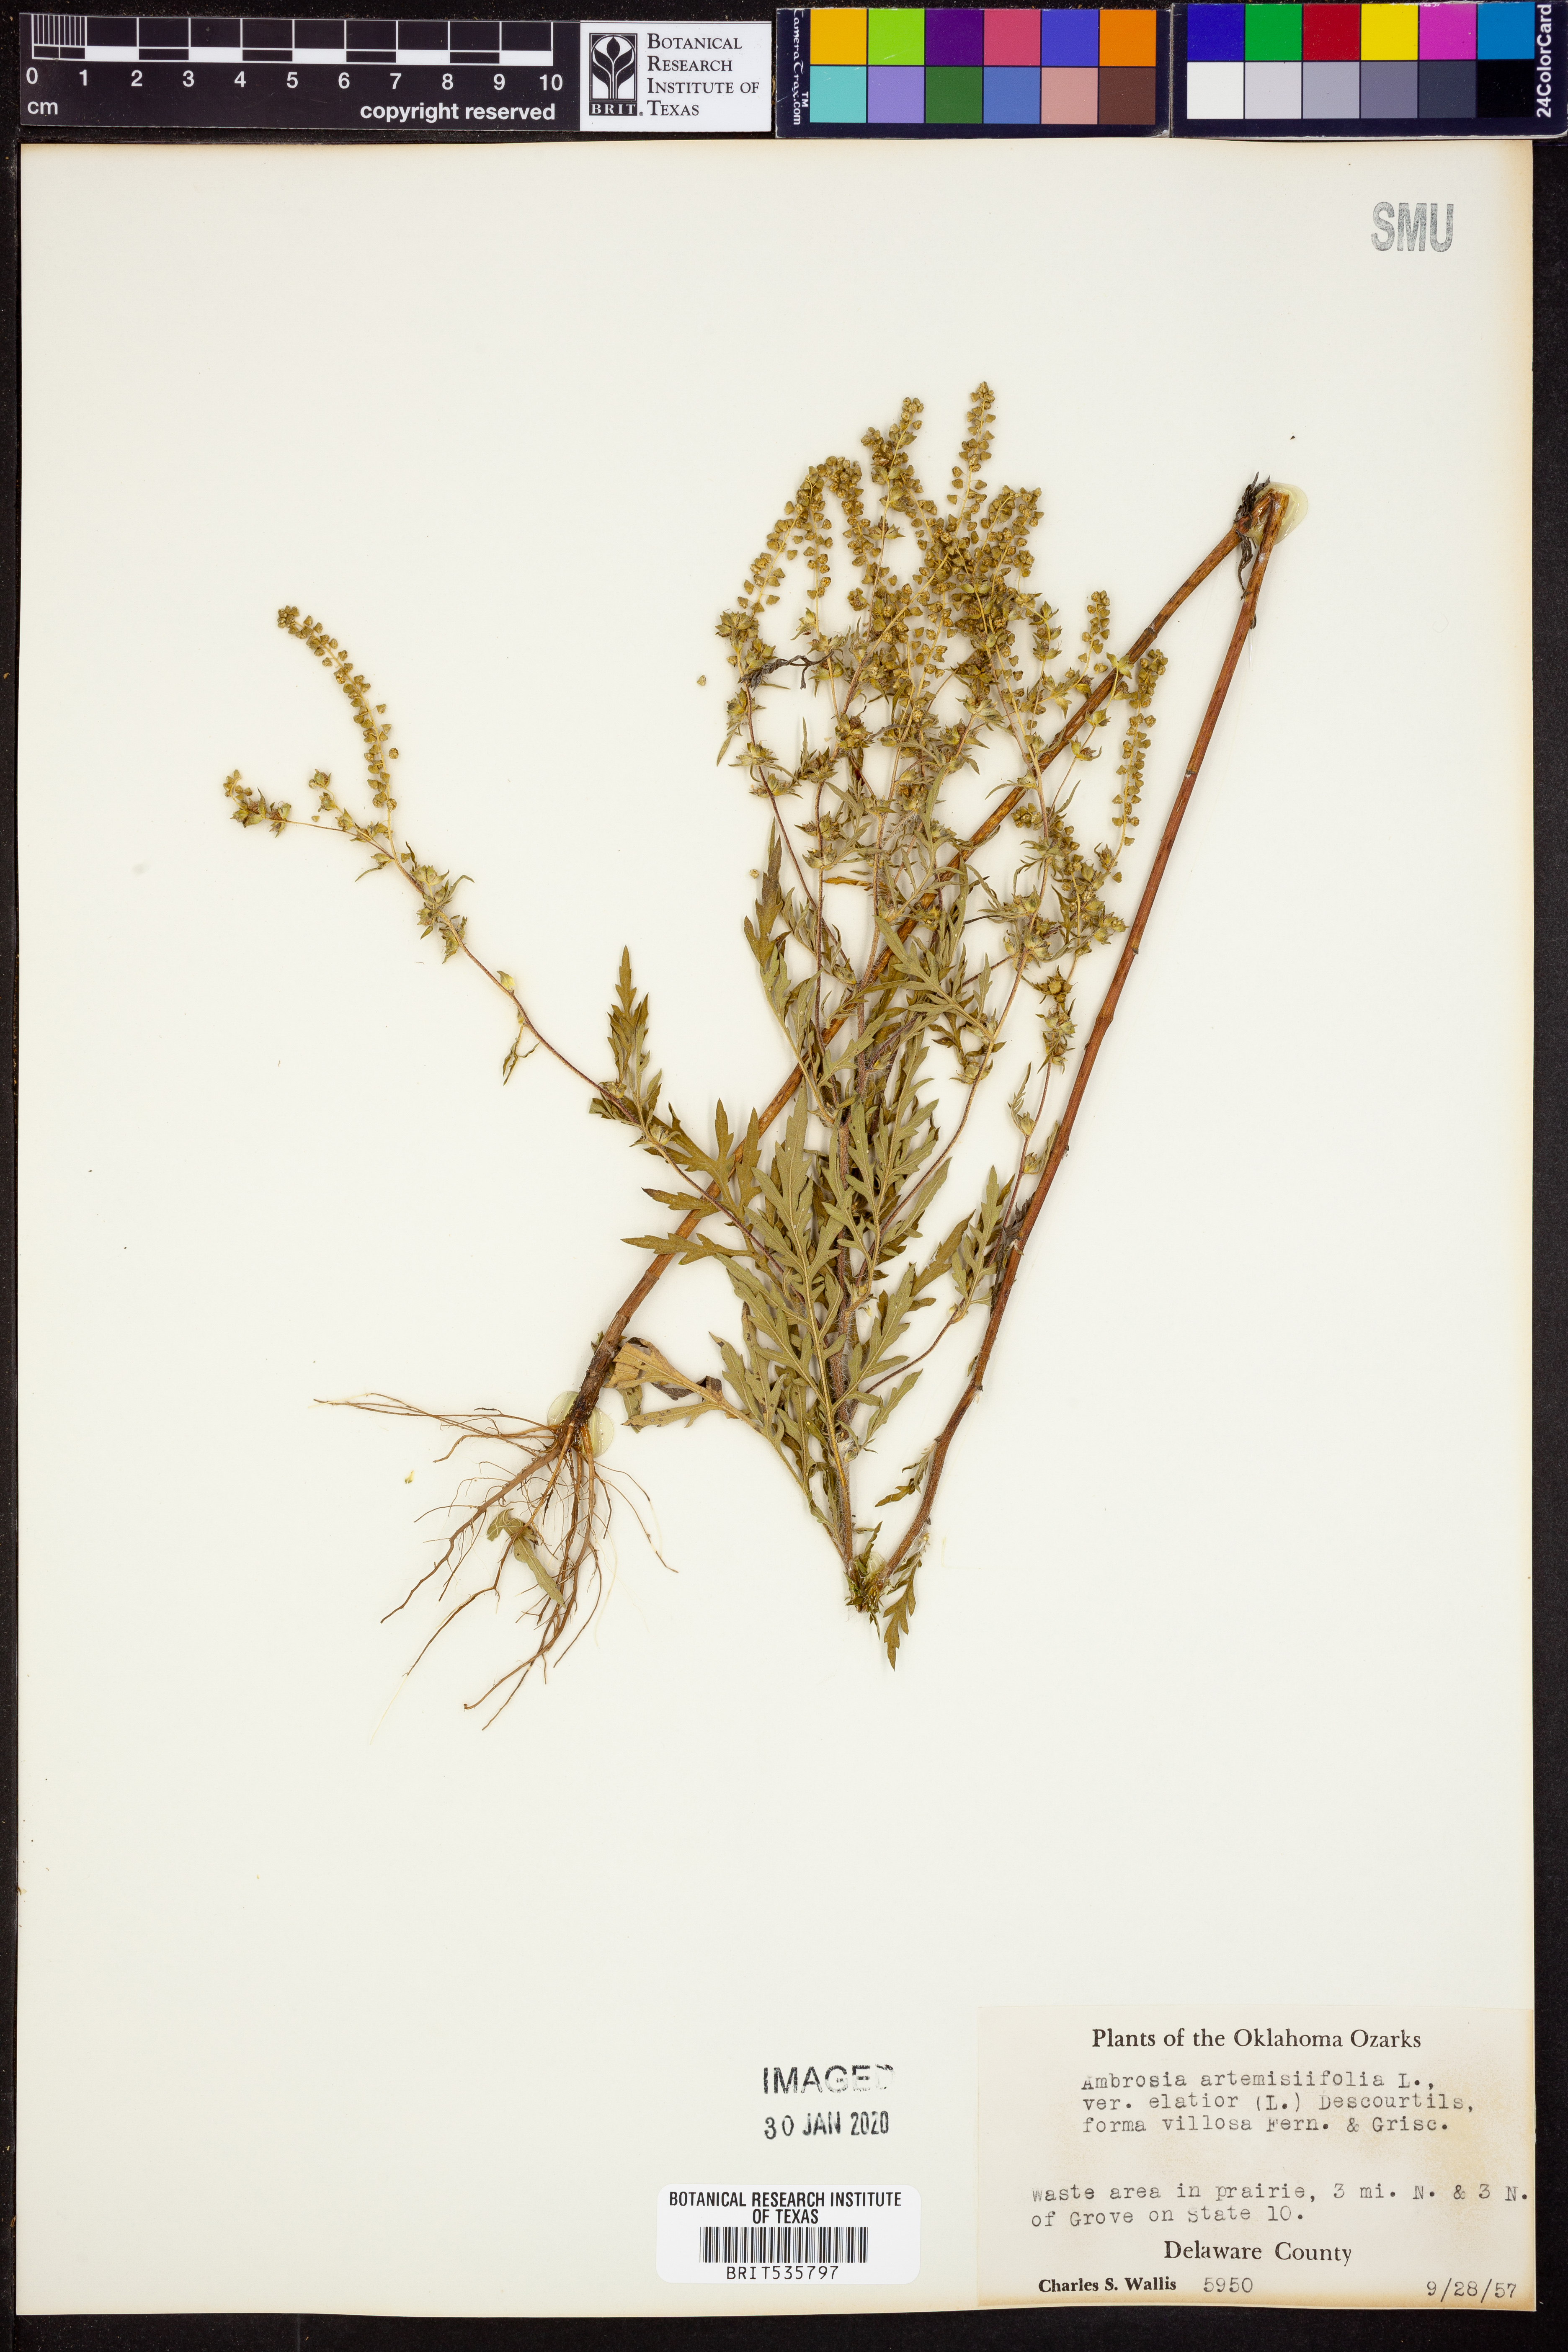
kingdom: Plantae
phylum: Tracheophyta
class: Magnoliopsida
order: Asterales
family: Asteraceae
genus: Ambrosia
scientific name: Ambrosia artemisiifolia
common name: Annual ragweed
